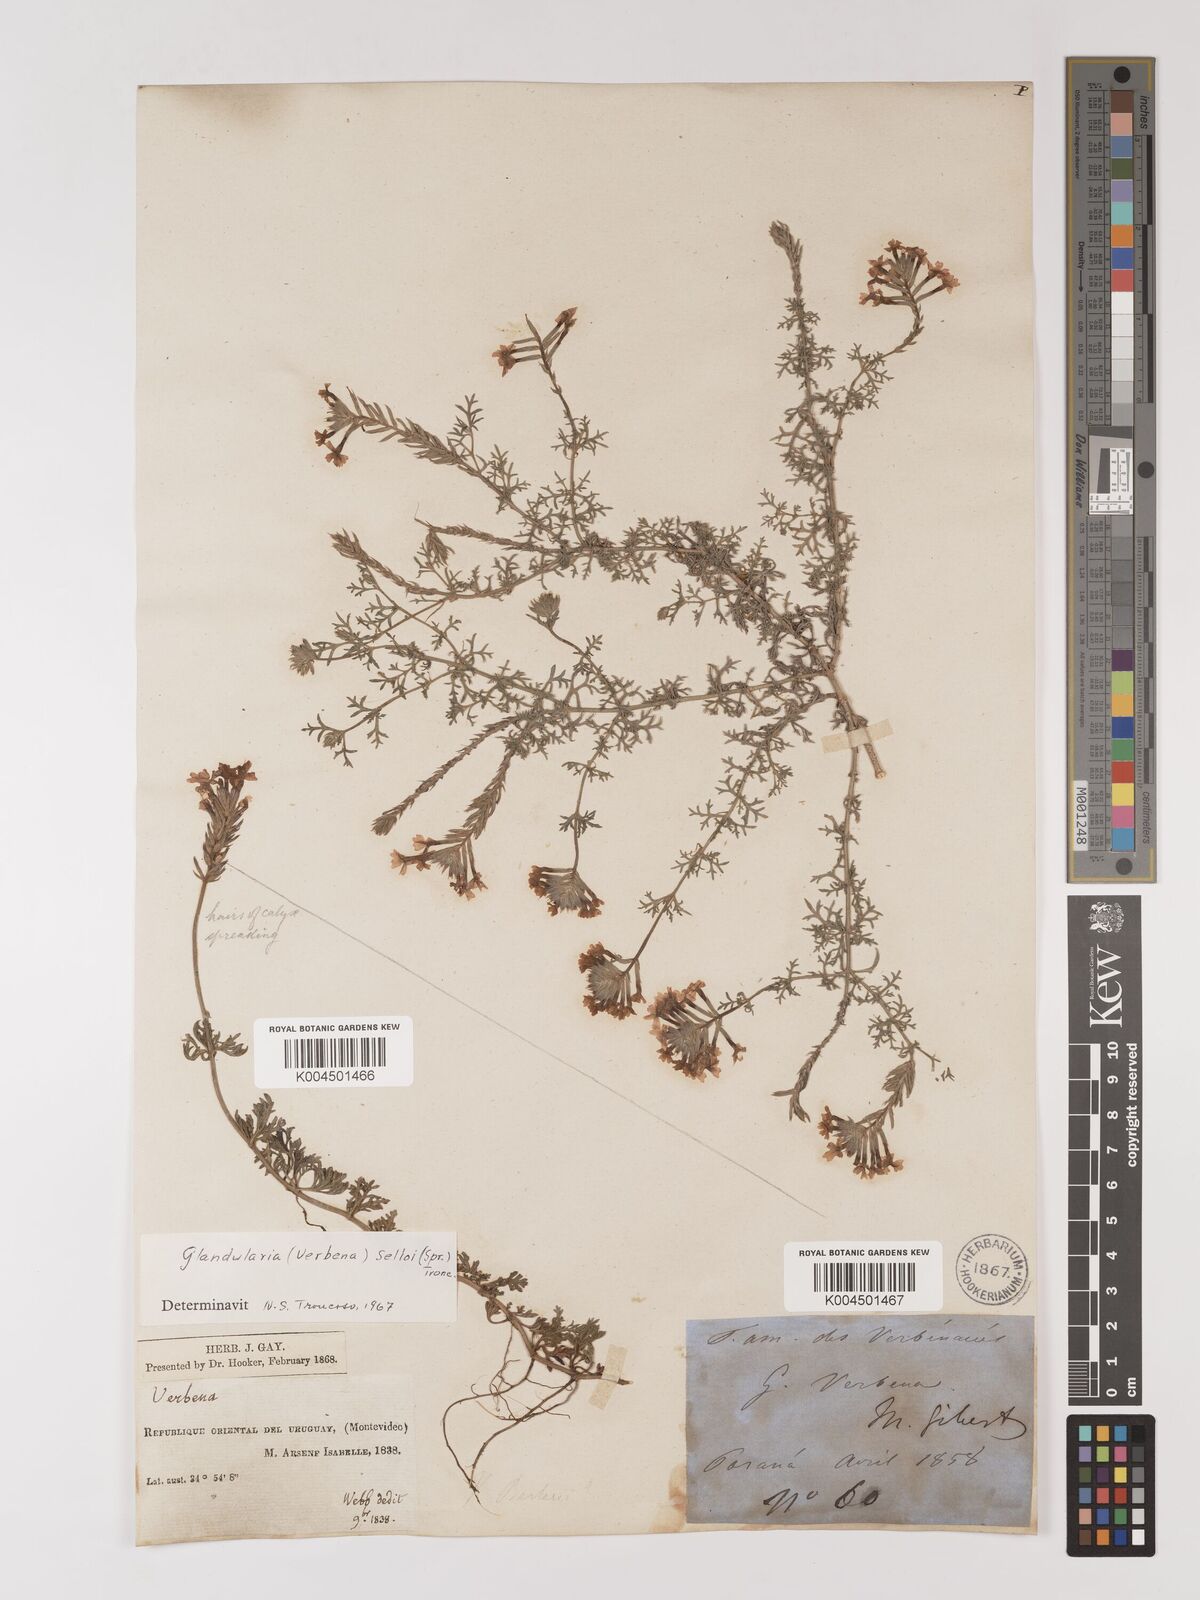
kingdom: Plantae
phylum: Tracheophyta
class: Magnoliopsida
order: Lamiales
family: Verbenaceae
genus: Verbena
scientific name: Verbena tenera
